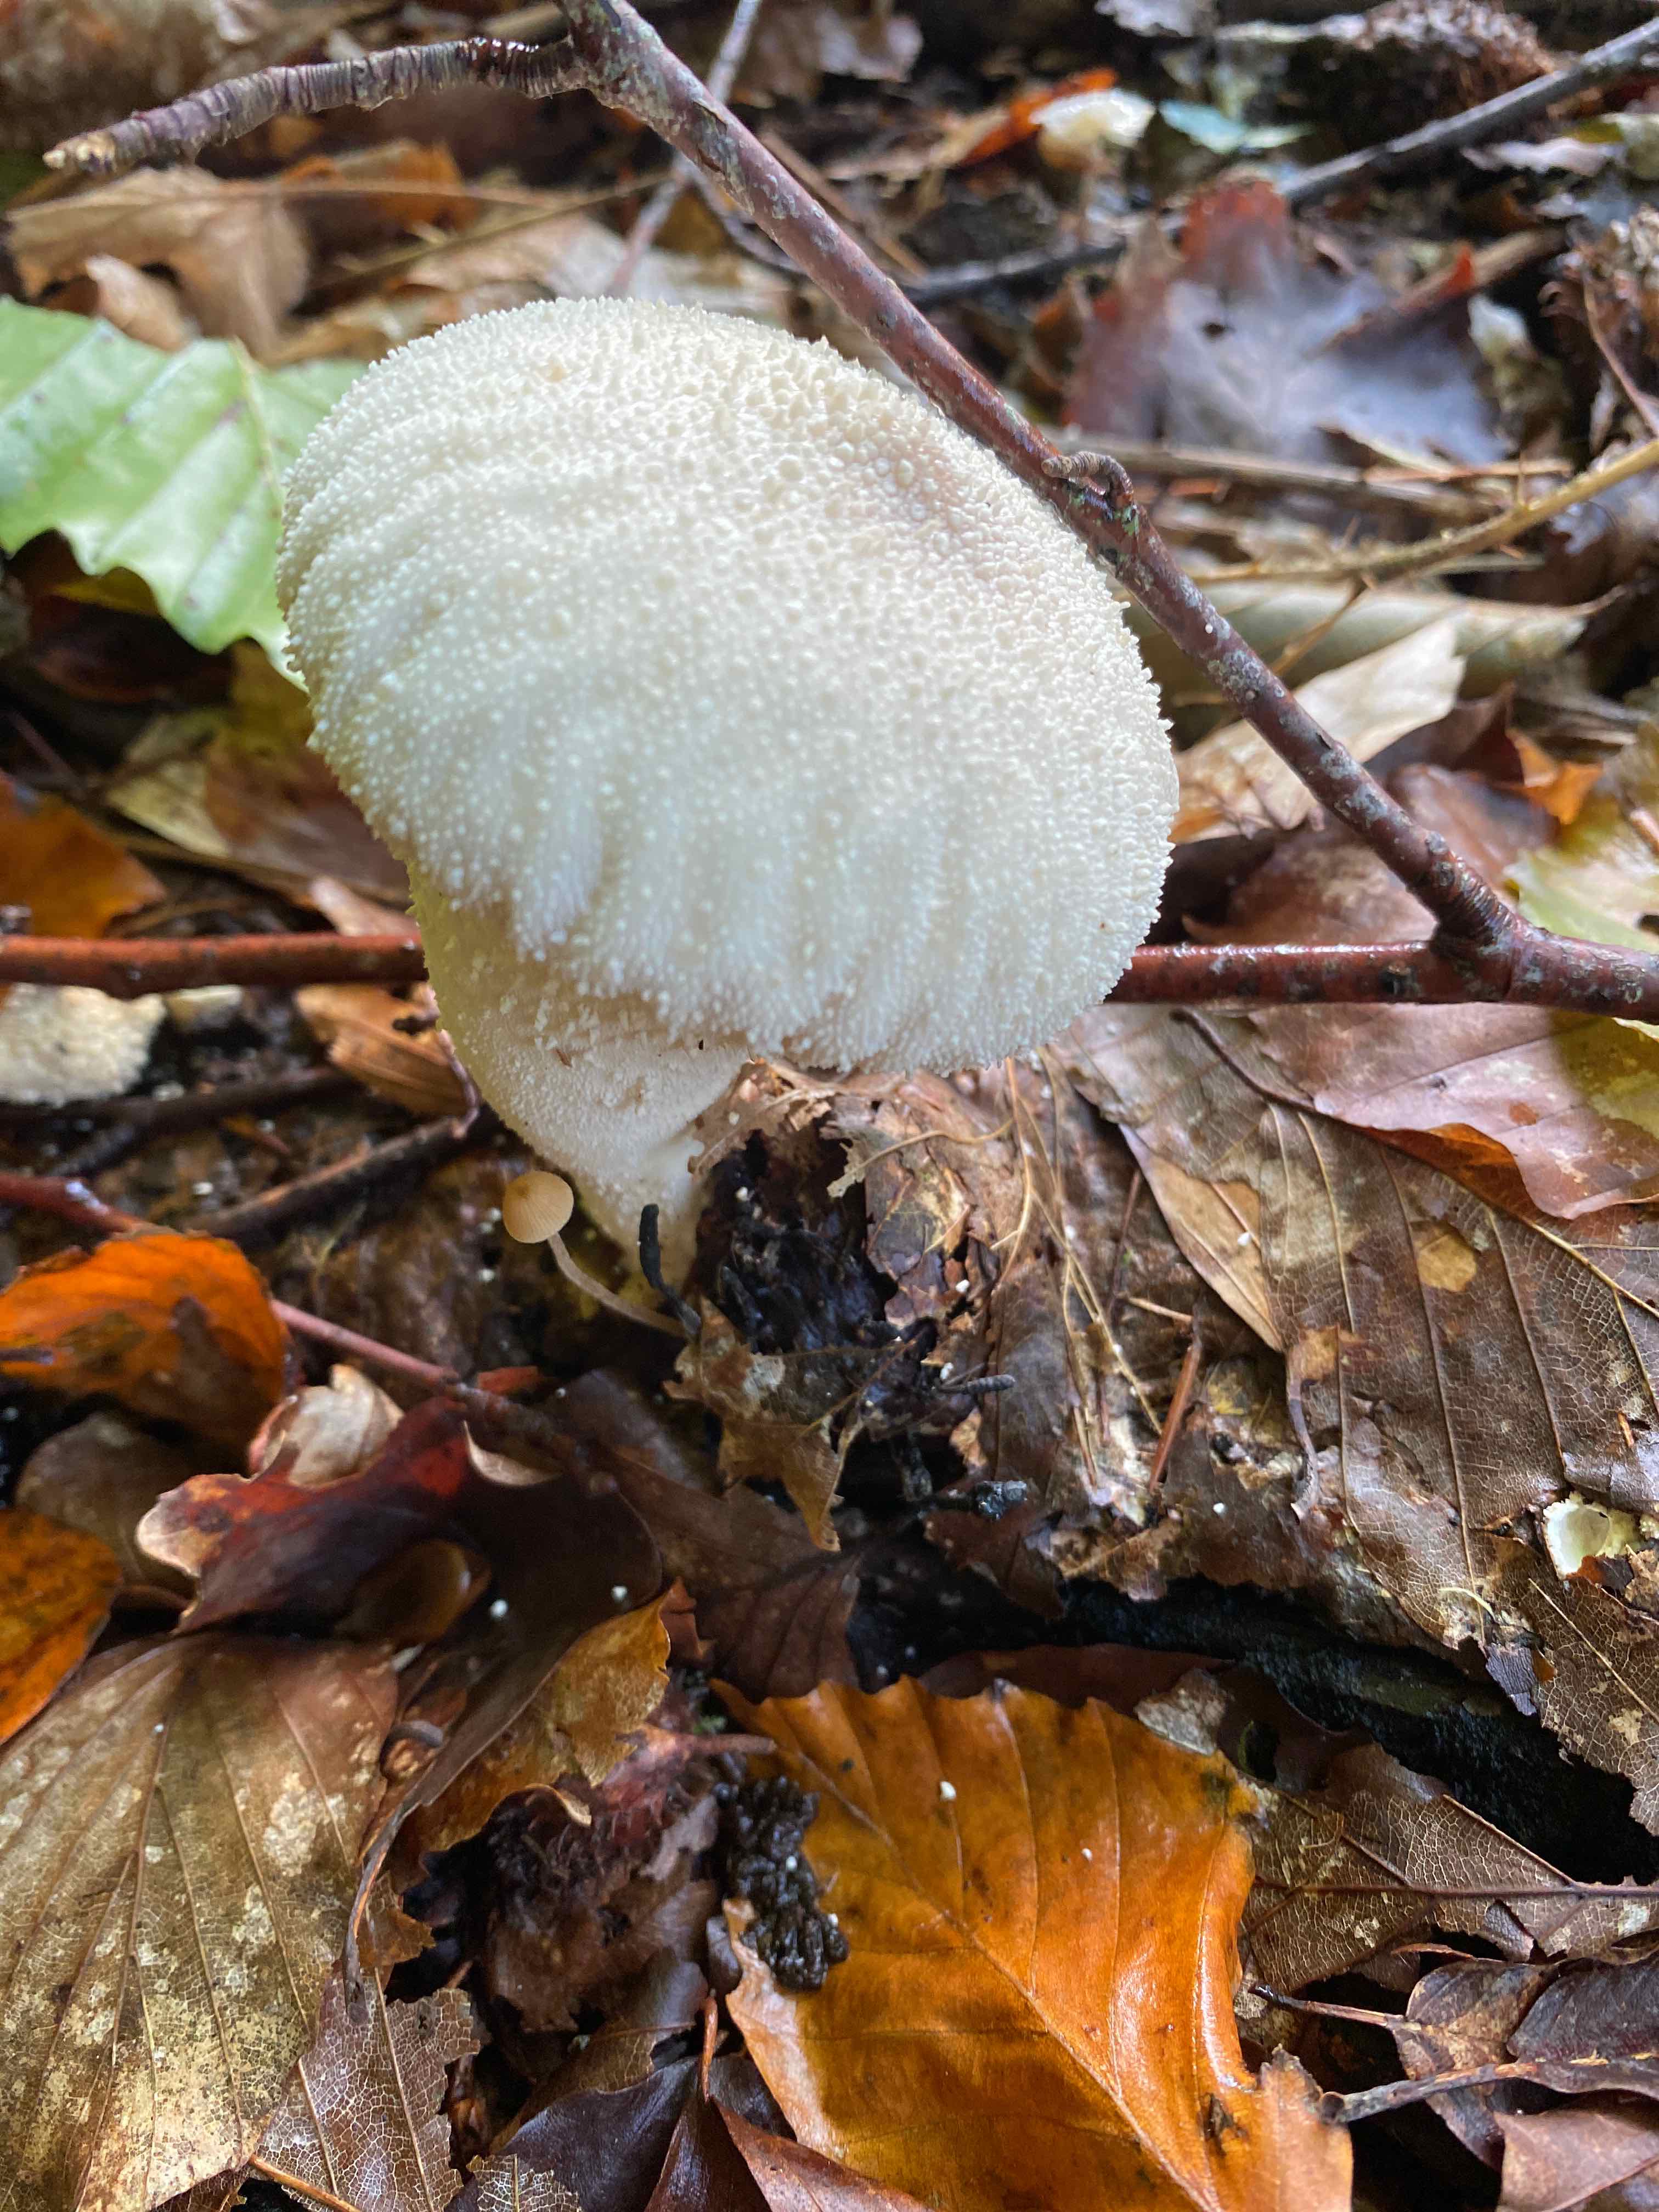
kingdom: Fungi
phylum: Basidiomycota
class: Agaricomycetes
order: Agaricales
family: Lycoperdaceae
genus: Lycoperdon
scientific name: Lycoperdon perlatum
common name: krystal-støvbold
